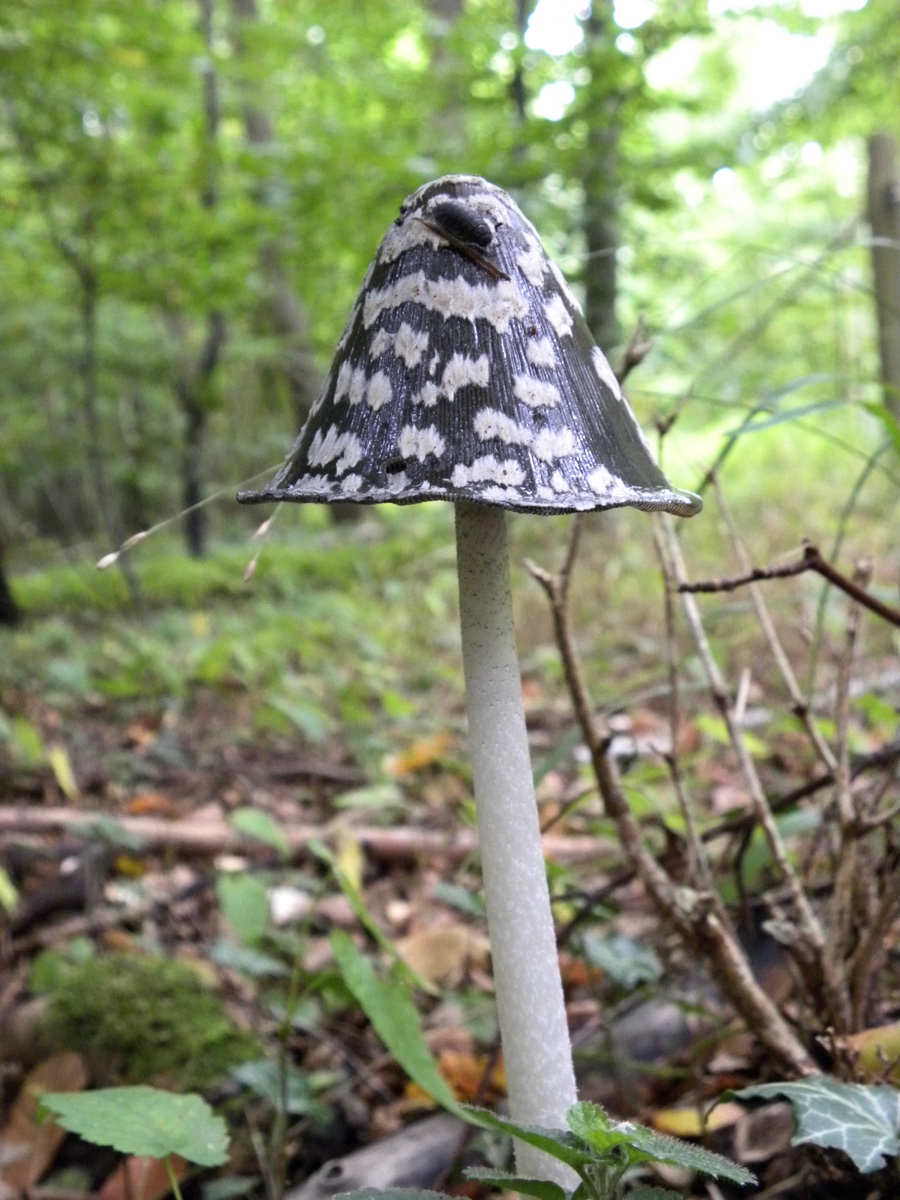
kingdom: Fungi
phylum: Basidiomycota
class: Agaricomycetes
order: Agaricales
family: Psathyrellaceae
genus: Coprinopsis
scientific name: Coprinopsis picacea
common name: skade-blækhat
